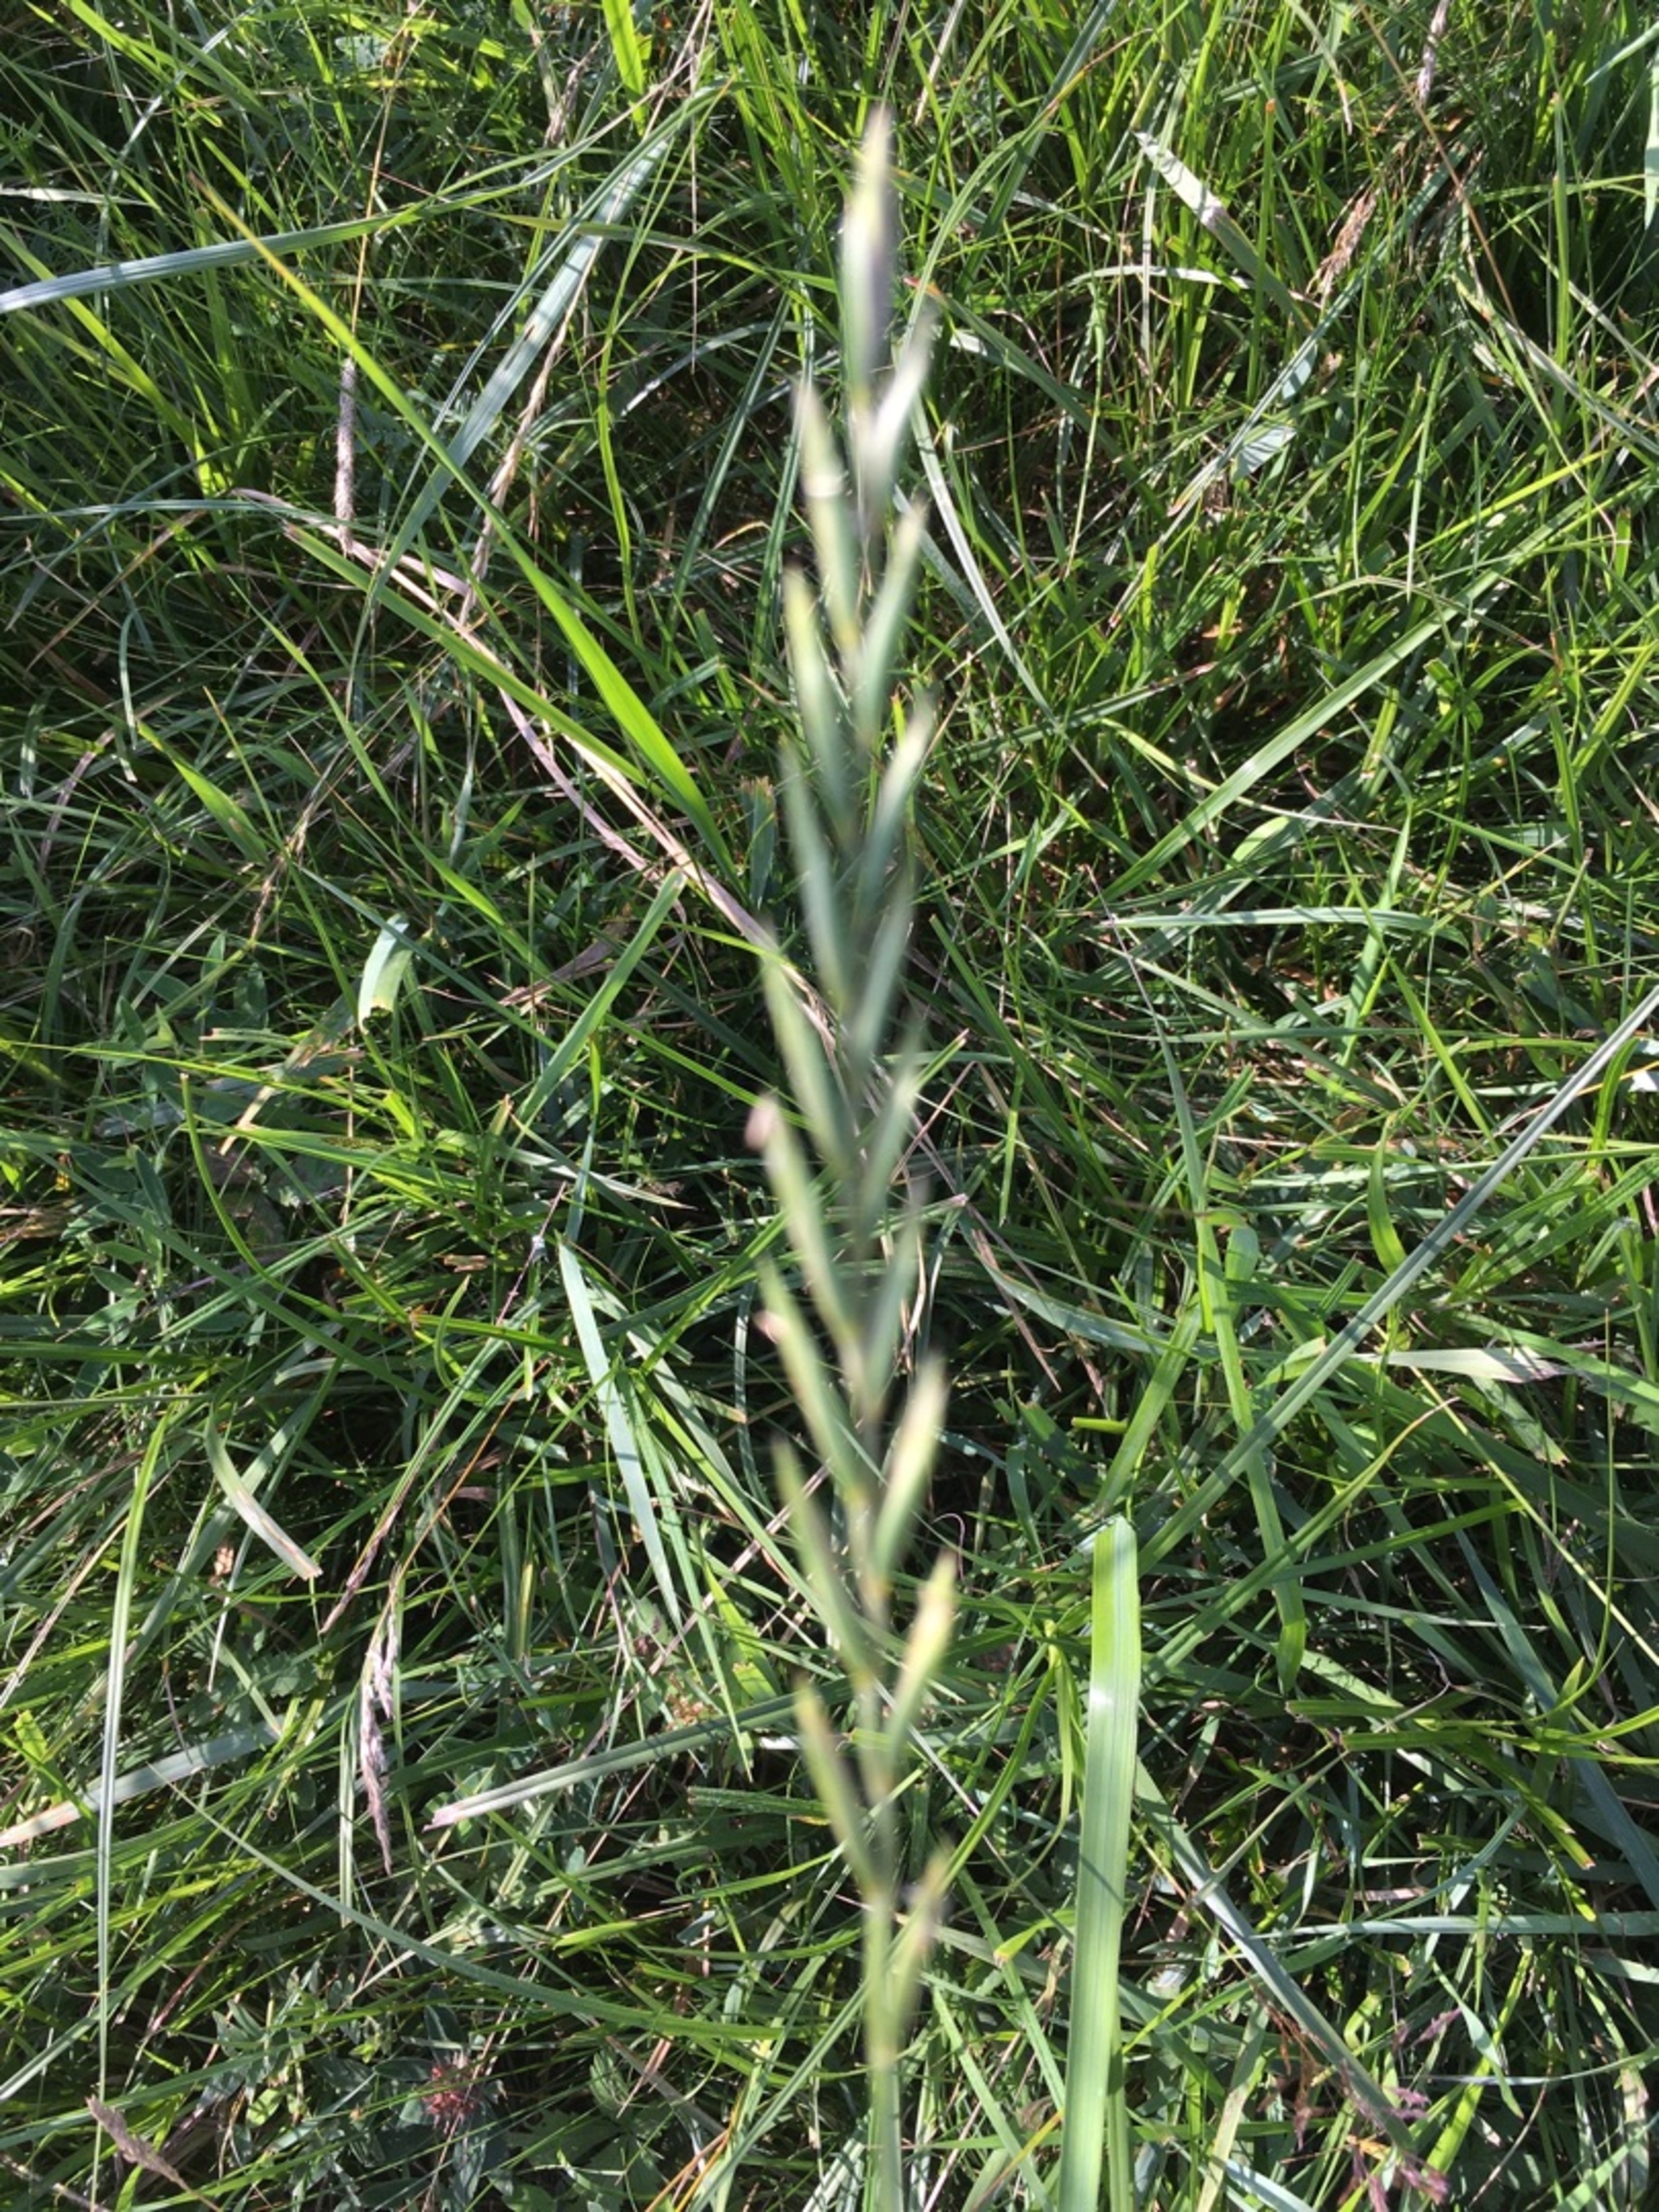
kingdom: Plantae
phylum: Tracheophyta
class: Liliopsida
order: Poales
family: Poaceae
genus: Elymus
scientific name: Elymus repens
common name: Almindelig kvik
